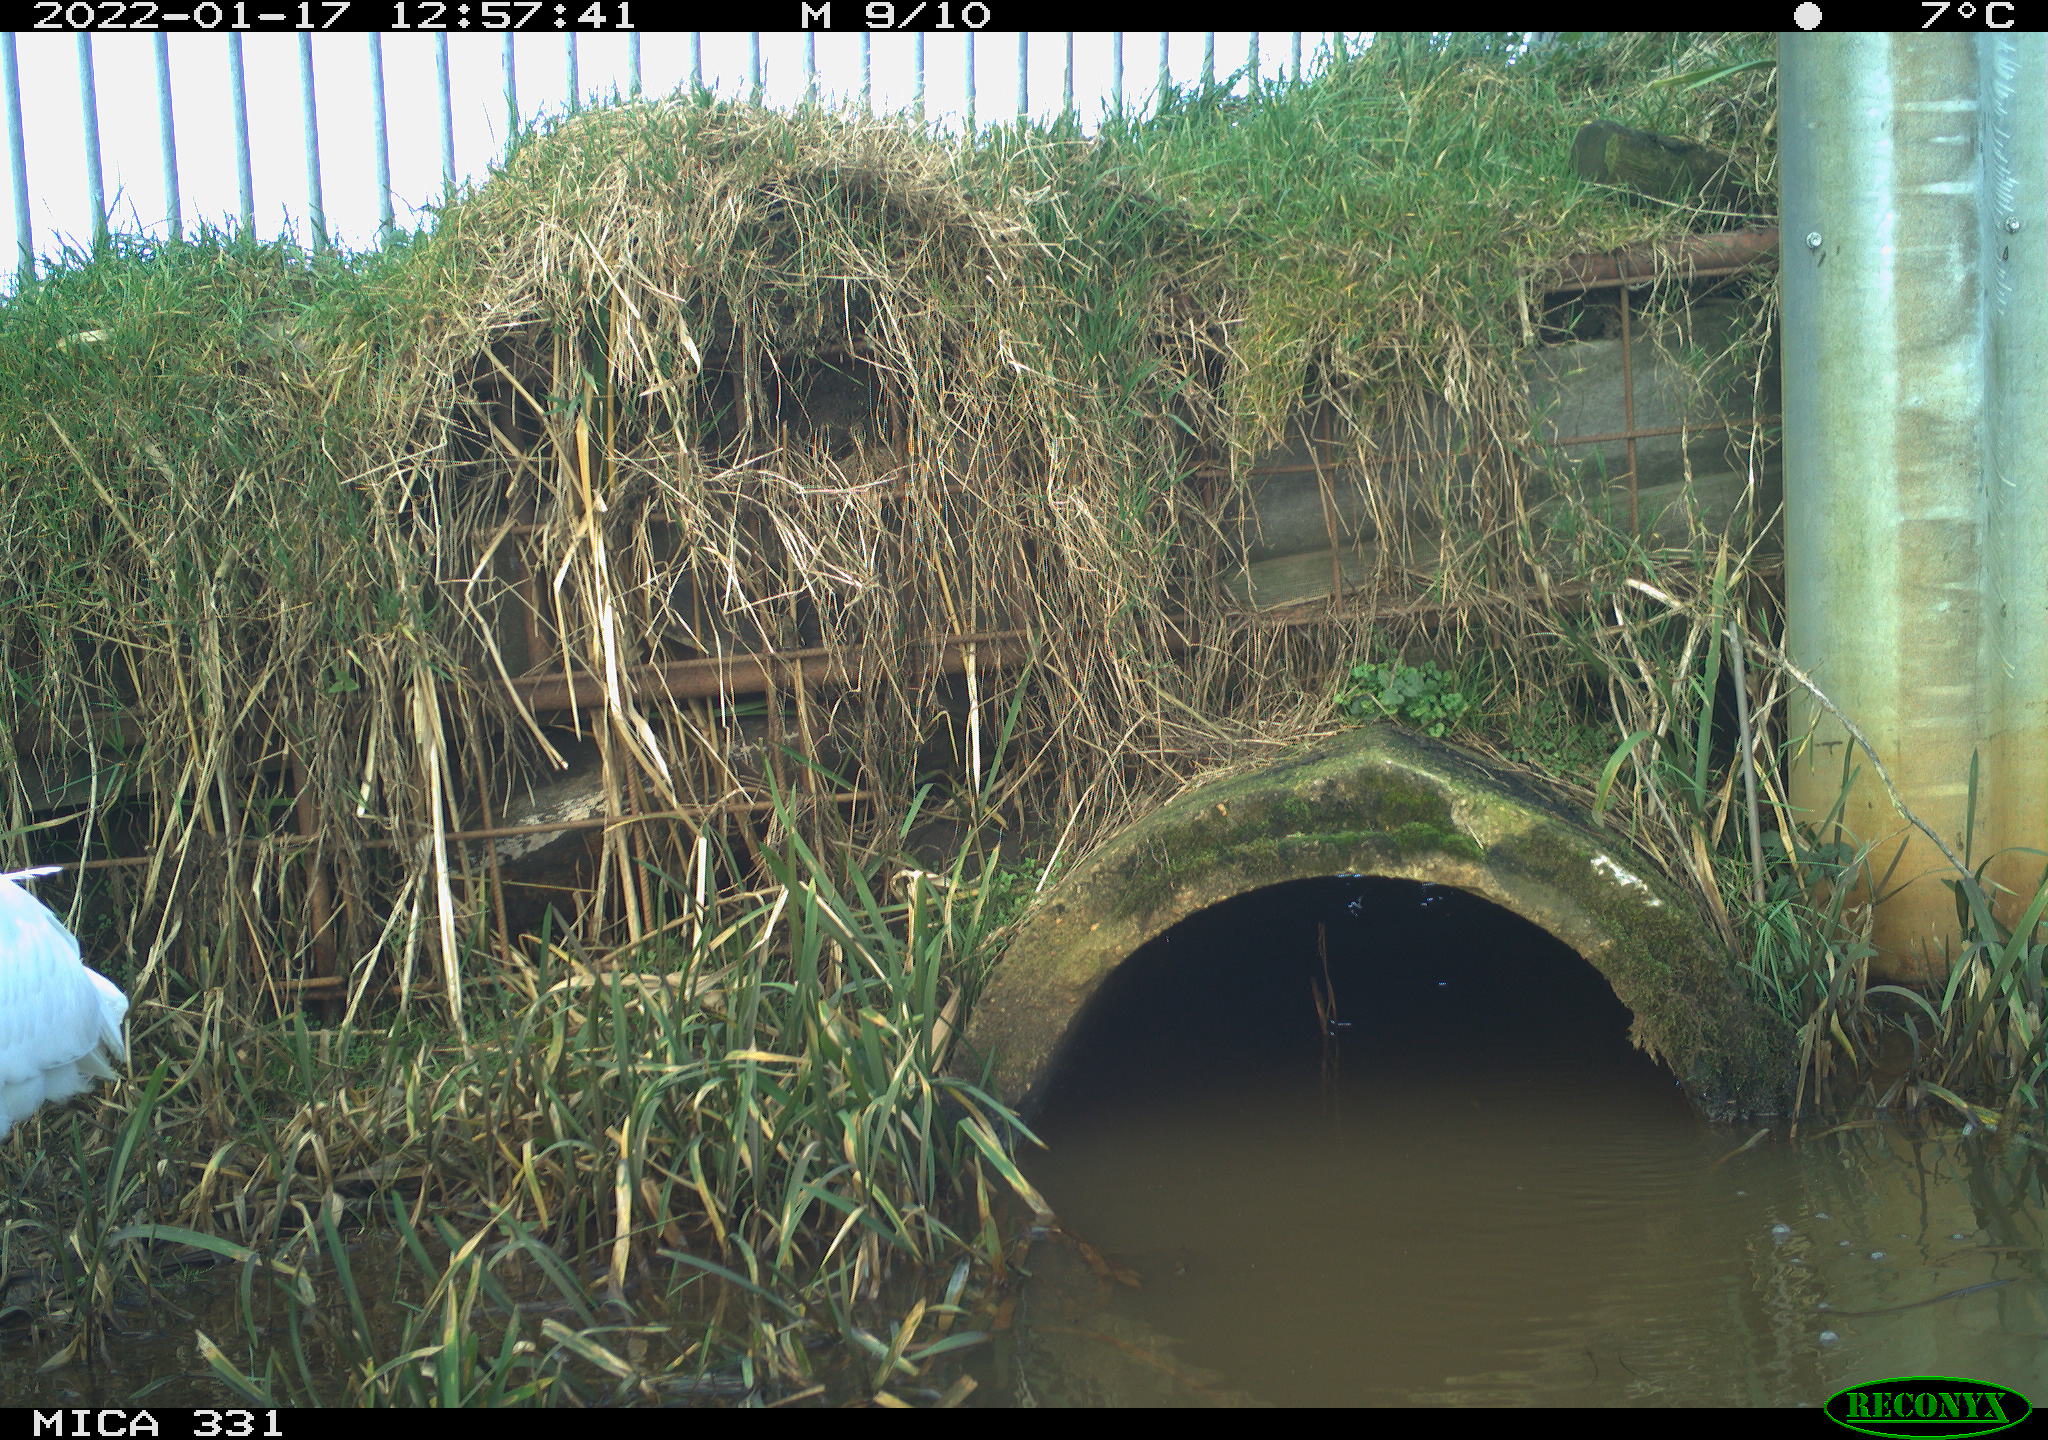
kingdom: Animalia
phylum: Chordata
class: Aves
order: Pelecaniformes
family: Ardeidae
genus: Ardea
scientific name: Ardea alba
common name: Great egret
